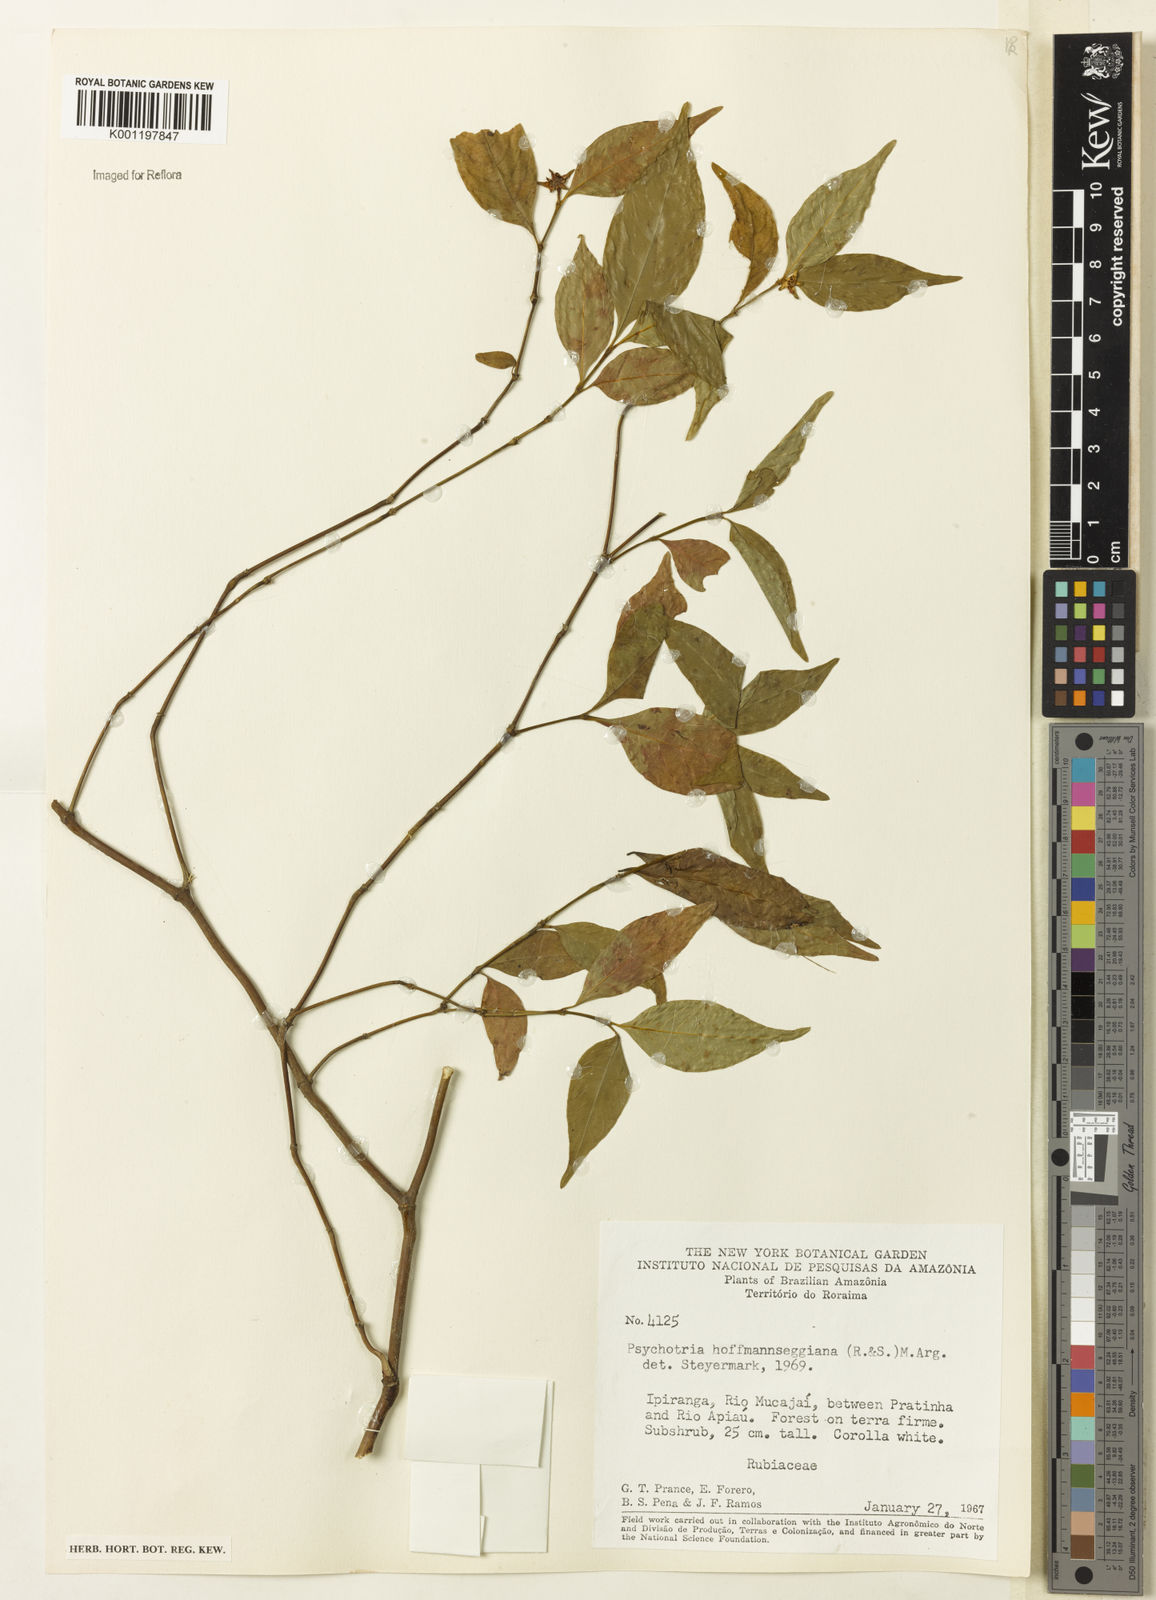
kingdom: Plantae
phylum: Tracheophyta
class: Magnoliopsida
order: Gentianales
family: Rubiaceae
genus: Psychotria
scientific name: Psychotria
